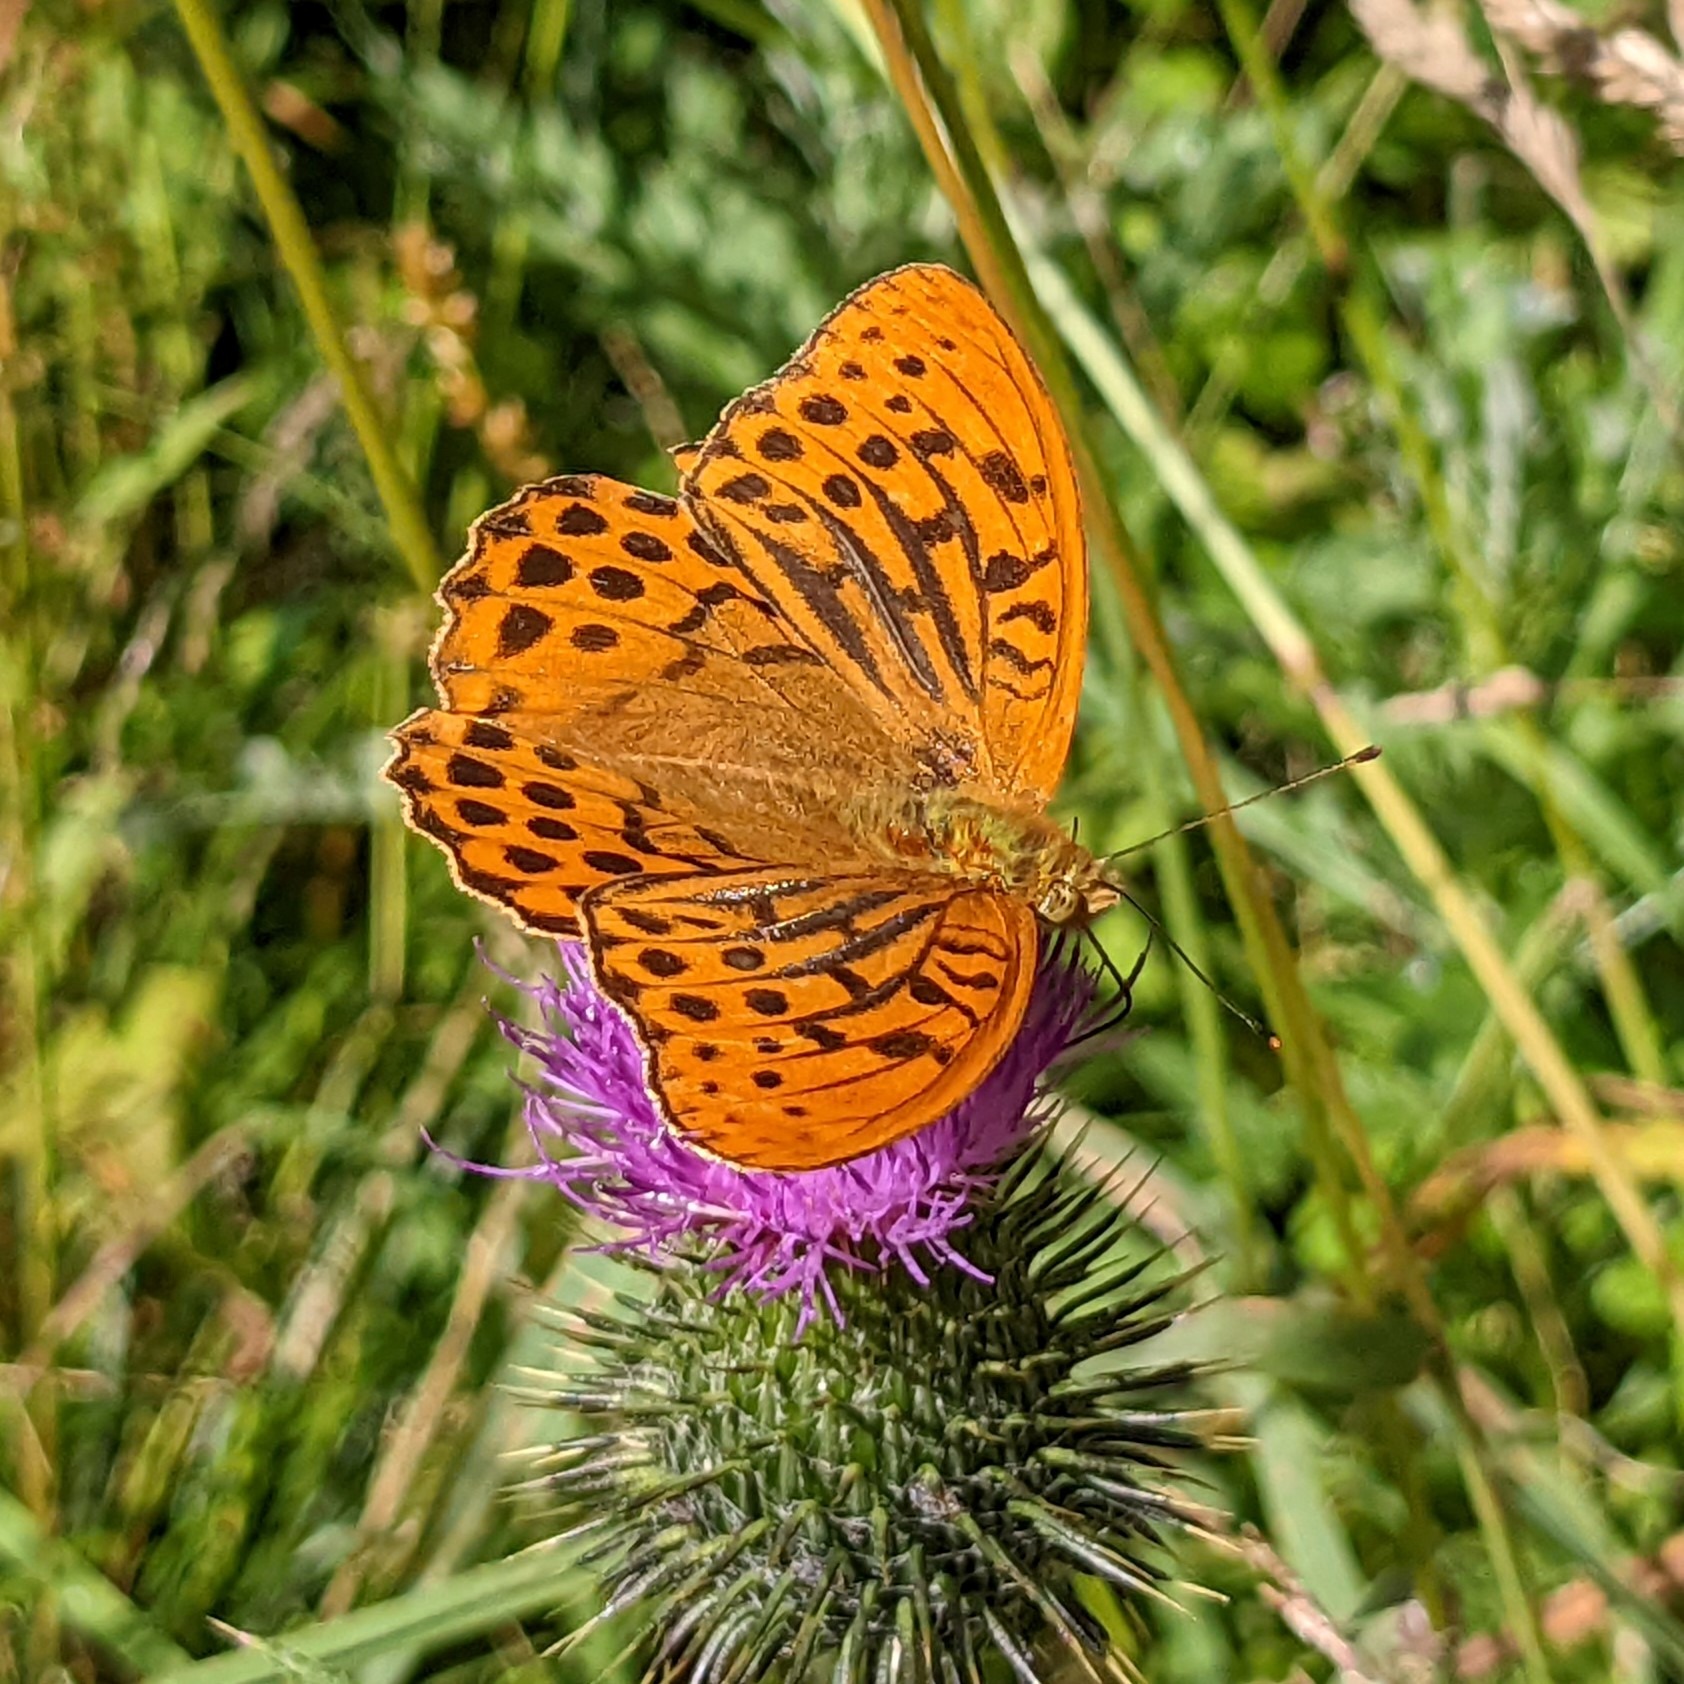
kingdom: Animalia
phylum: Arthropoda
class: Insecta
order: Lepidoptera
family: Nymphalidae
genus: Argynnis
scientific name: Argynnis paphia
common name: Kejserkåbe
